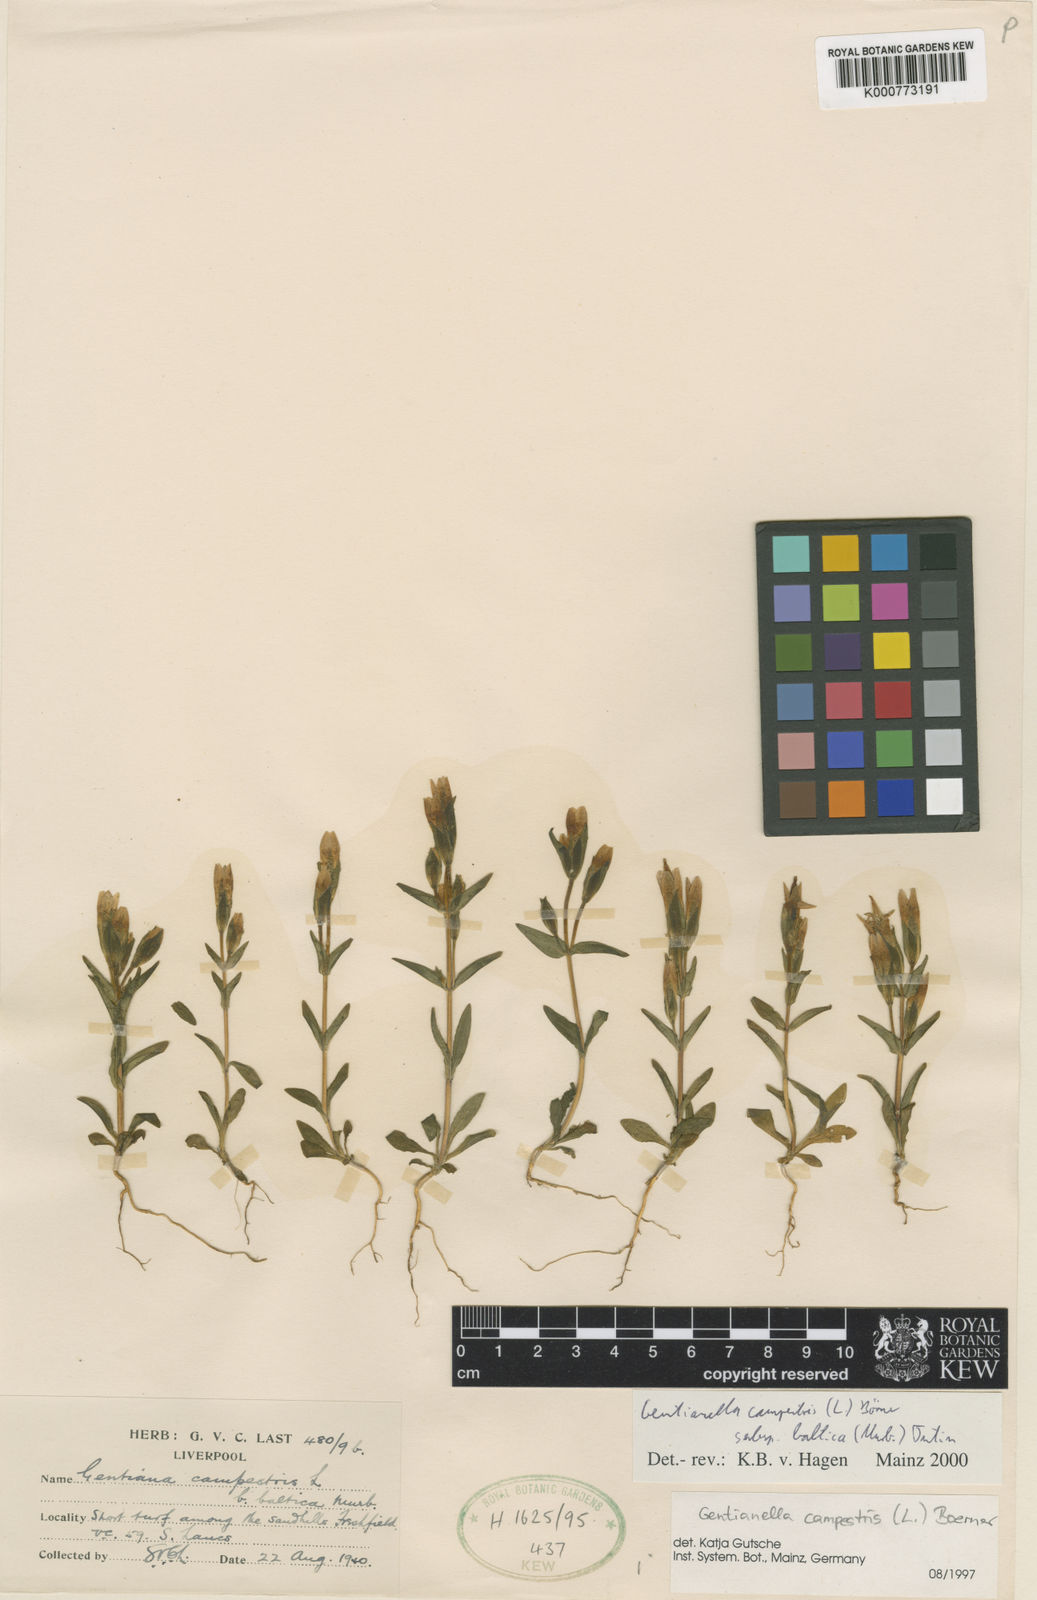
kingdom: Plantae
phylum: Tracheophyta
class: Magnoliopsida
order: Gentianales
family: Gentianaceae
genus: Gentianella
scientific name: Gentianella
